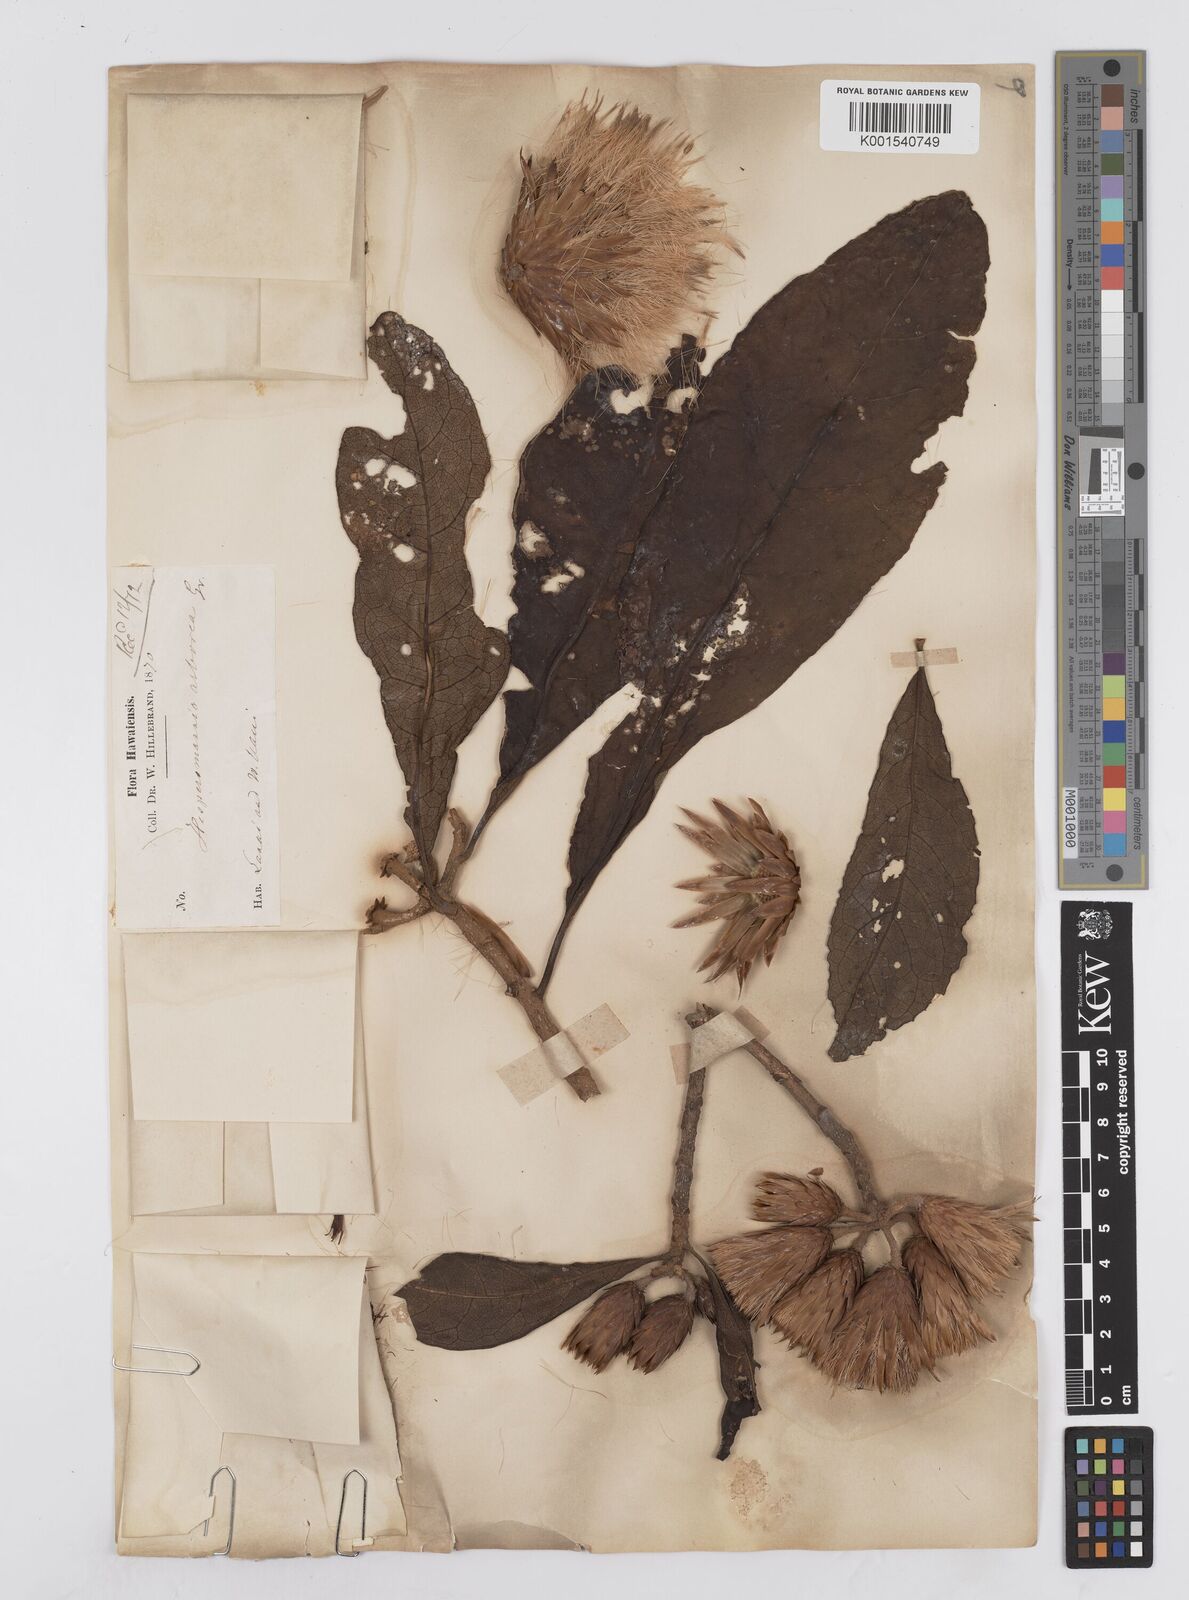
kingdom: Plantae
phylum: Tracheophyta
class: Magnoliopsida
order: Asterales
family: Asteraceae
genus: Hesperomannia
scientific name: Hesperomannia
